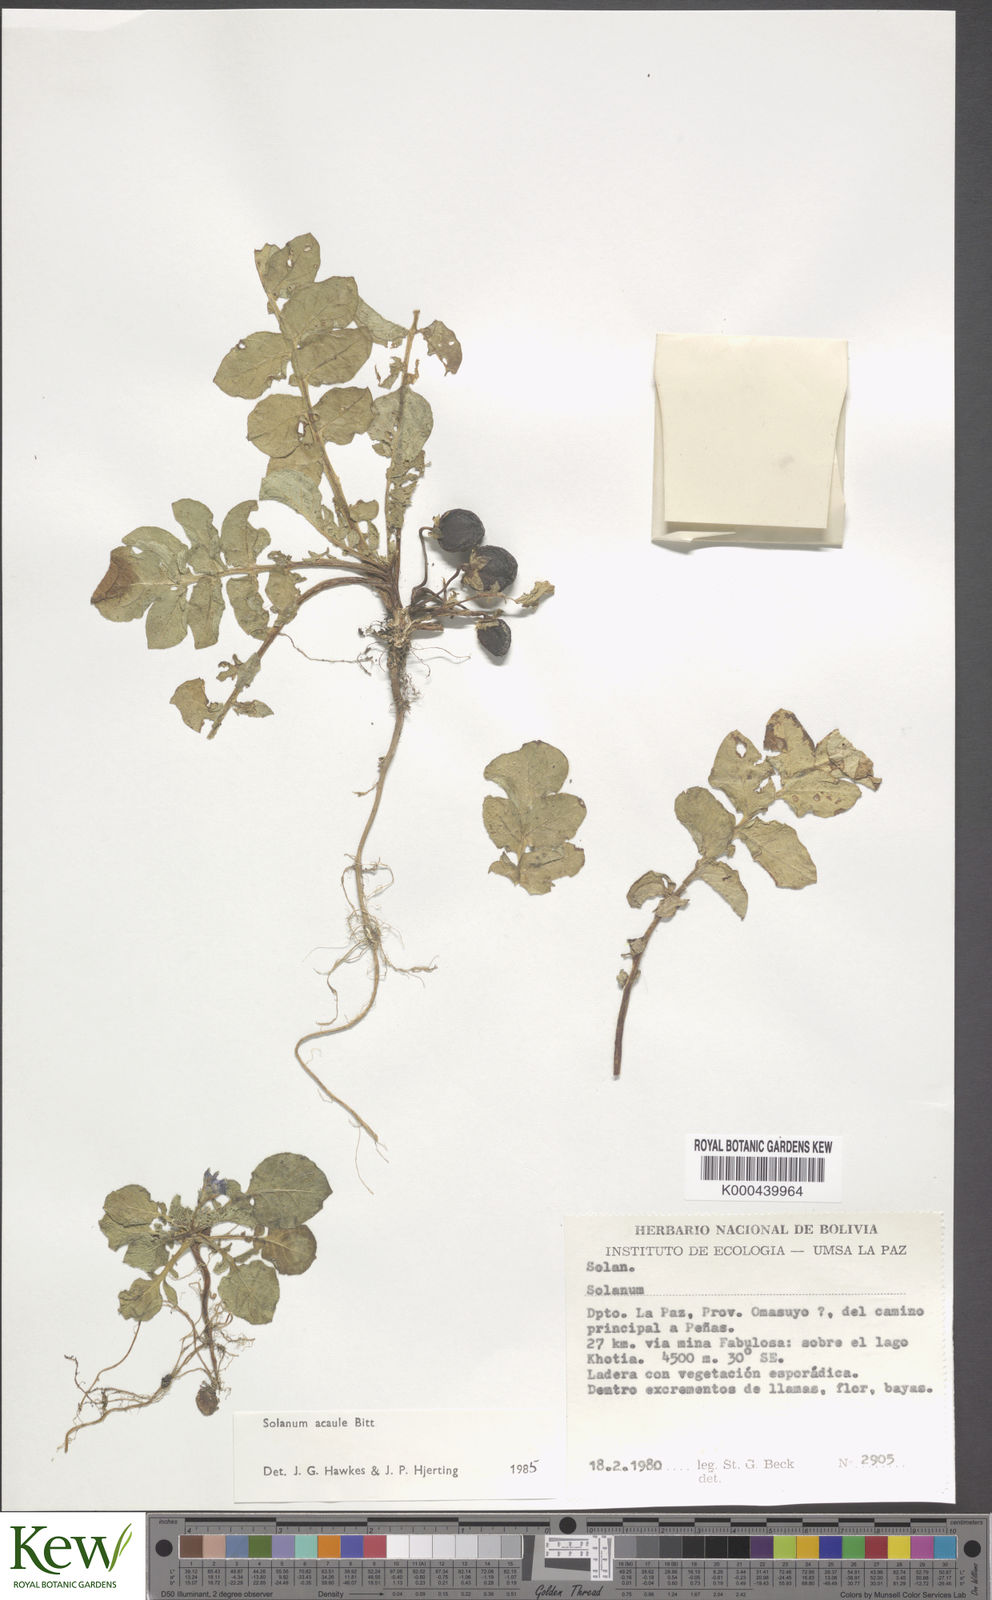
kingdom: Plantae
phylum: Tracheophyta
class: Magnoliopsida
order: Solanales
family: Solanaceae
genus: Solanum
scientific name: Solanum acaule
